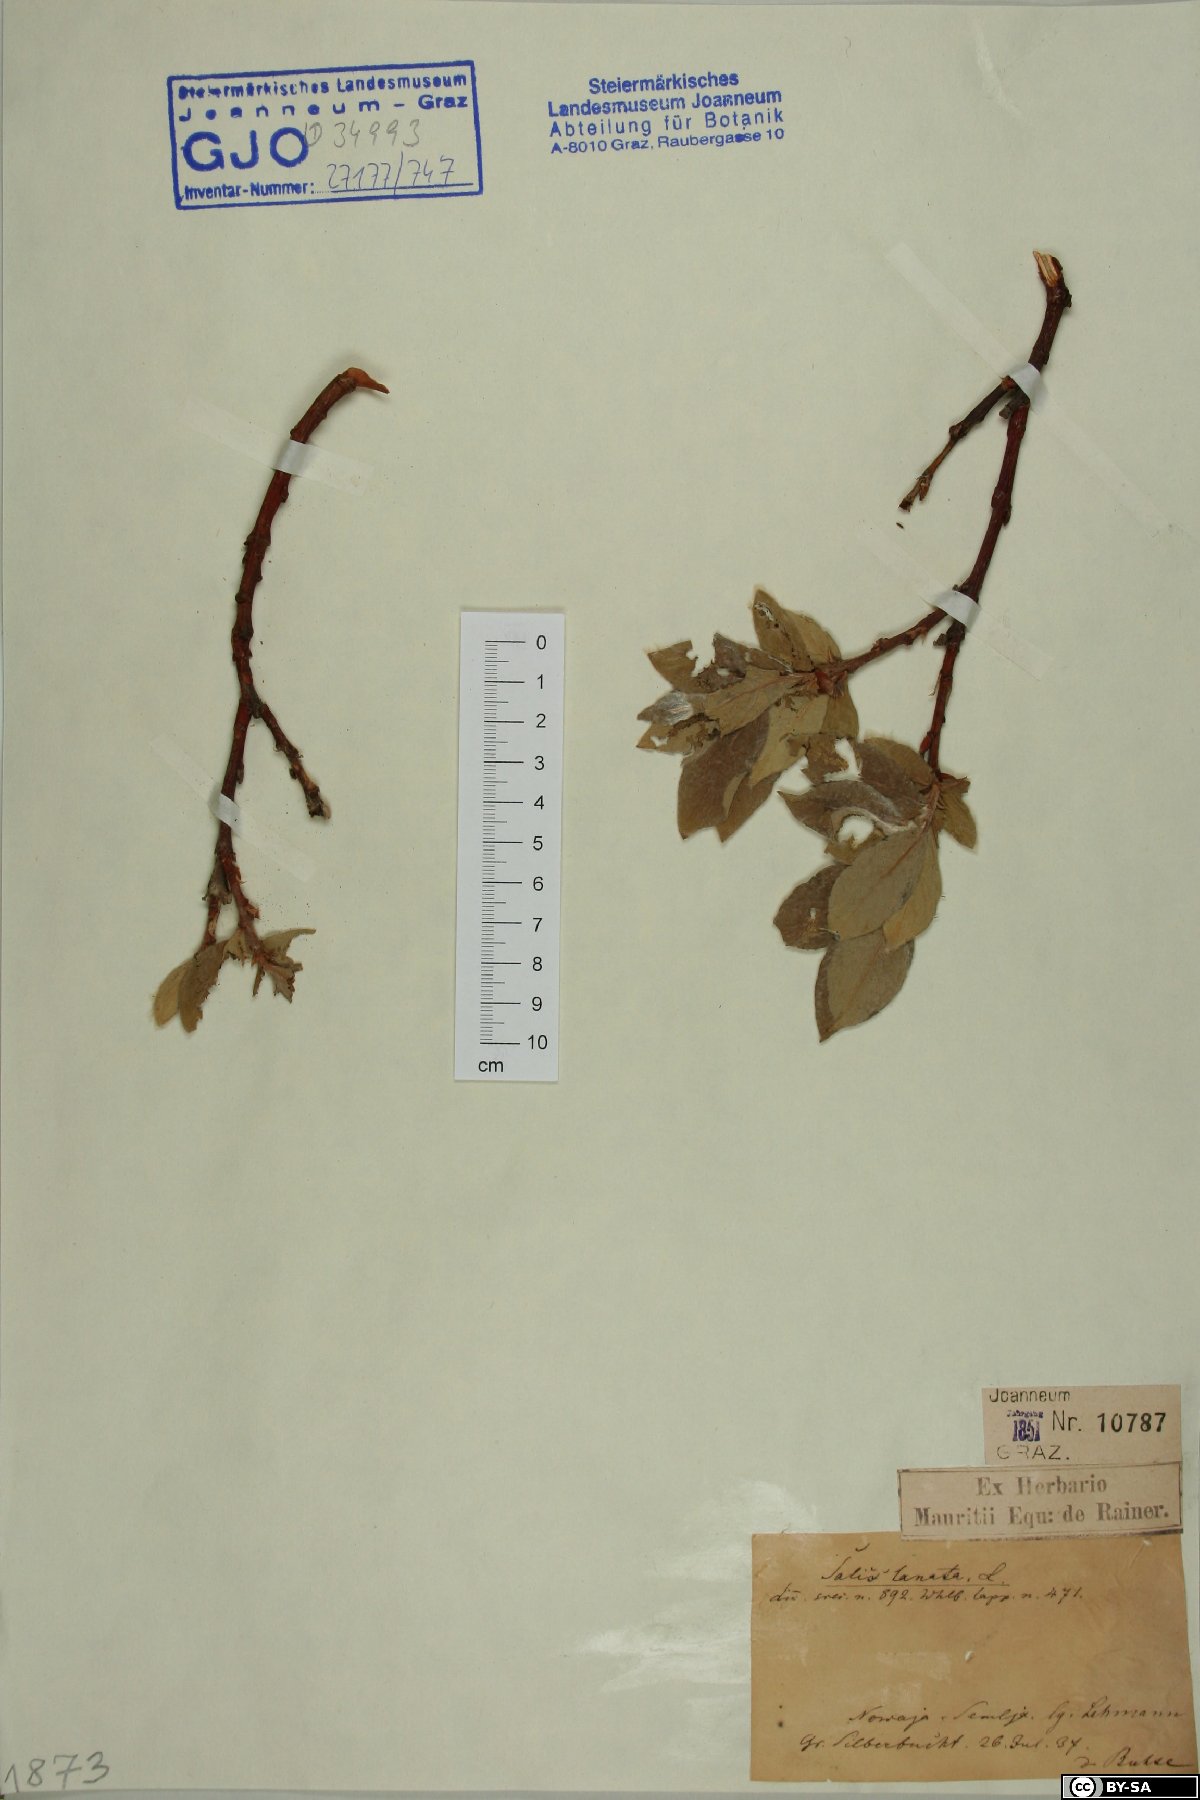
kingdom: Plantae
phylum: Tracheophyta
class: Magnoliopsida
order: Malpighiales
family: Salicaceae
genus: Salix
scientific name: Salix lanata
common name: Woolly willow
